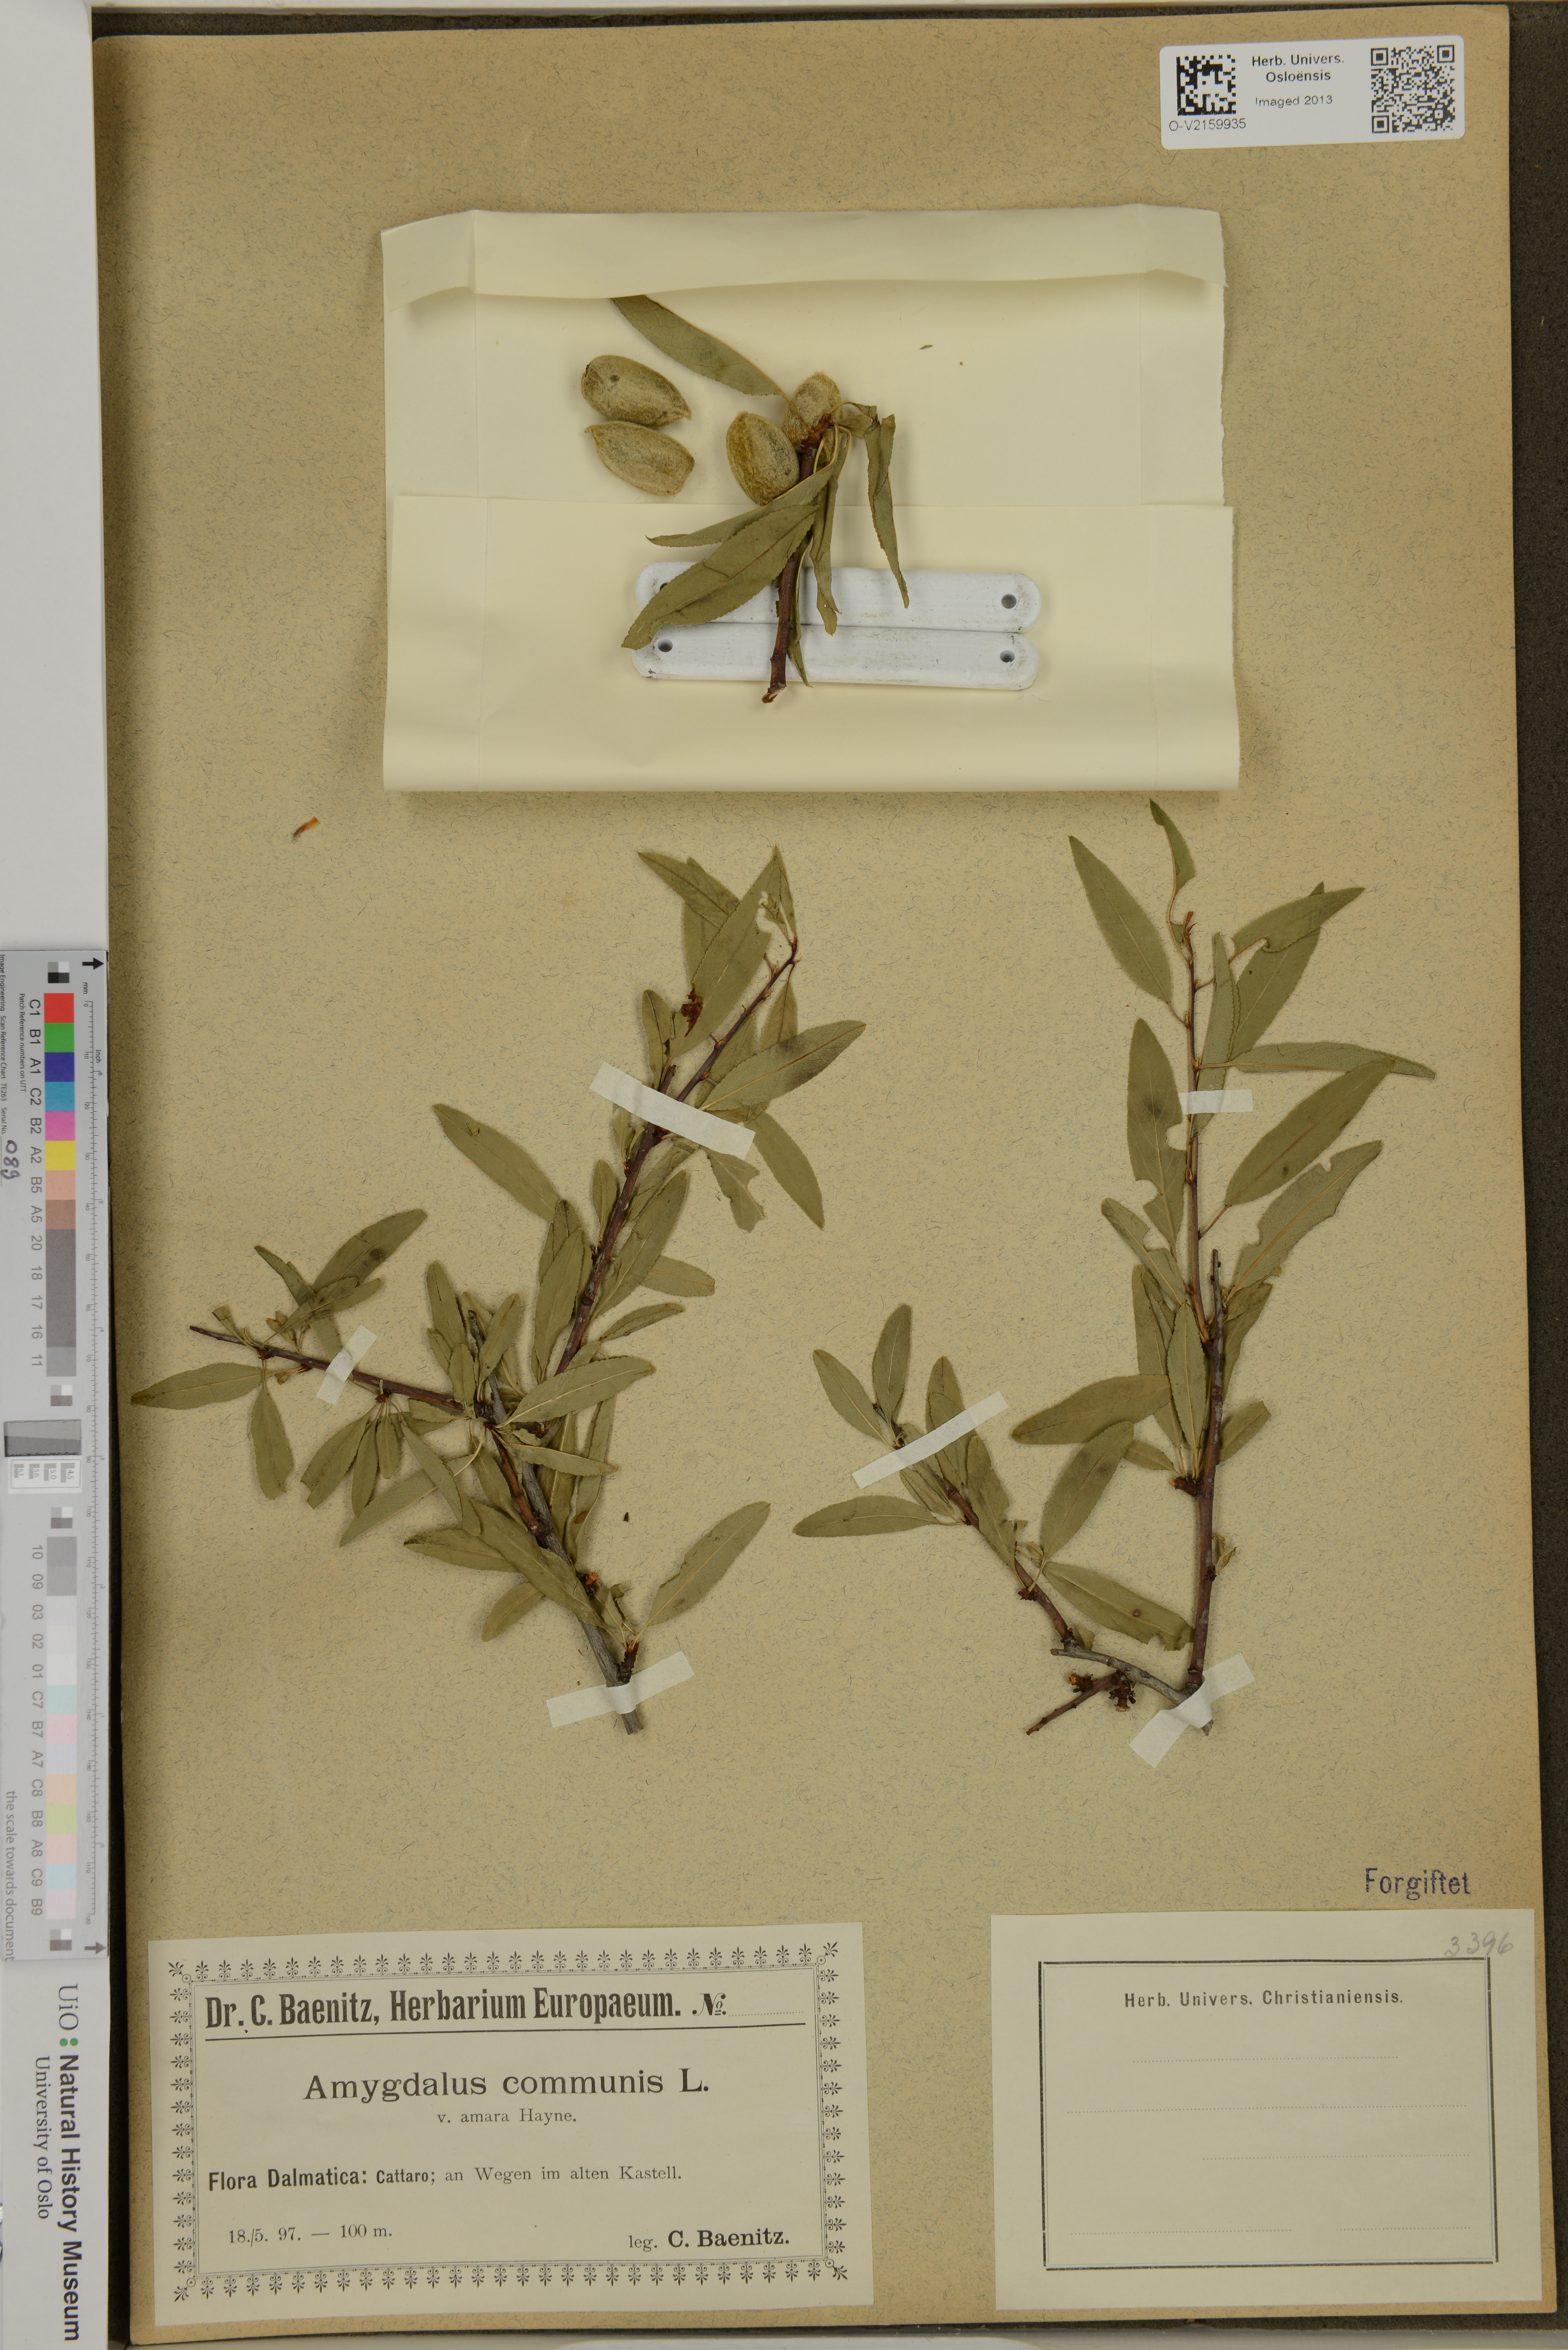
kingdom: Plantae
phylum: Tracheophyta
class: Magnoliopsida
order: Rosales
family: Rosaceae
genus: Prunus
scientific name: Prunus
